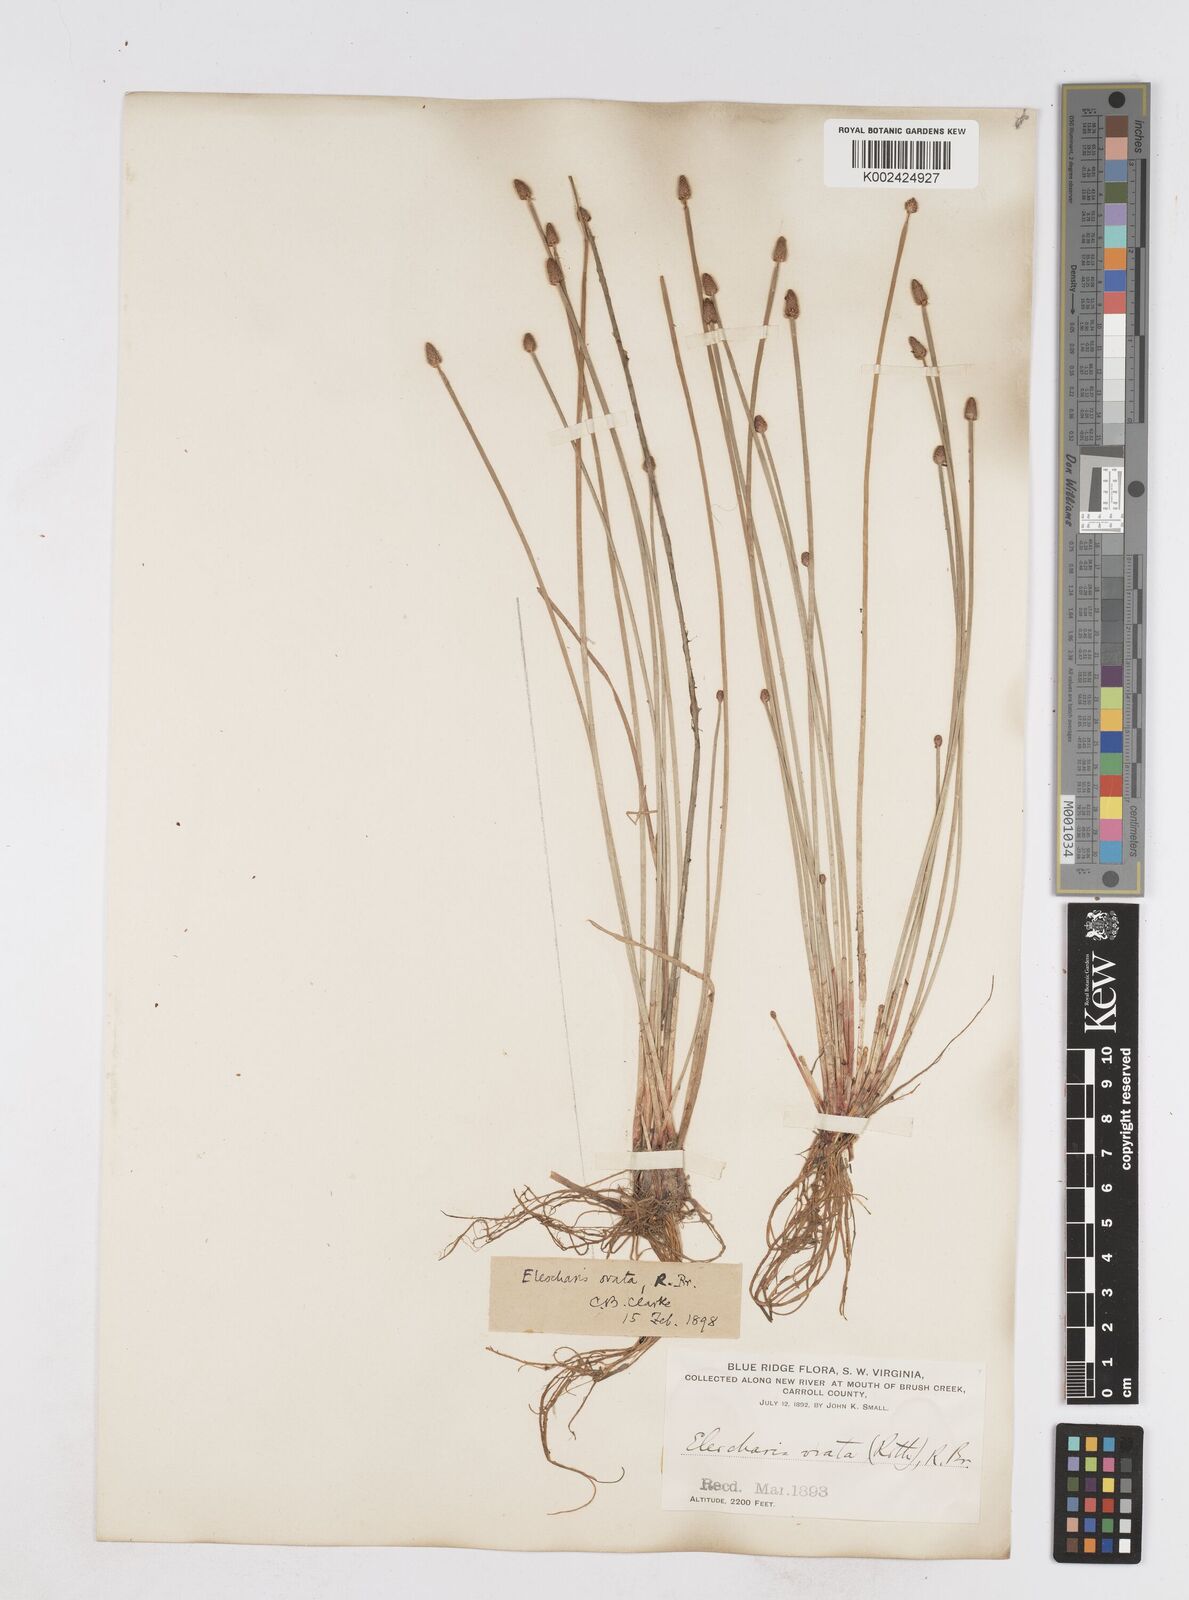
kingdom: Plantae
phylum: Tracheophyta
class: Liliopsida
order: Poales
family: Cyperaceae
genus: Eleocharis
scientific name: Eleocharis ovata
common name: Oval spike-rush
